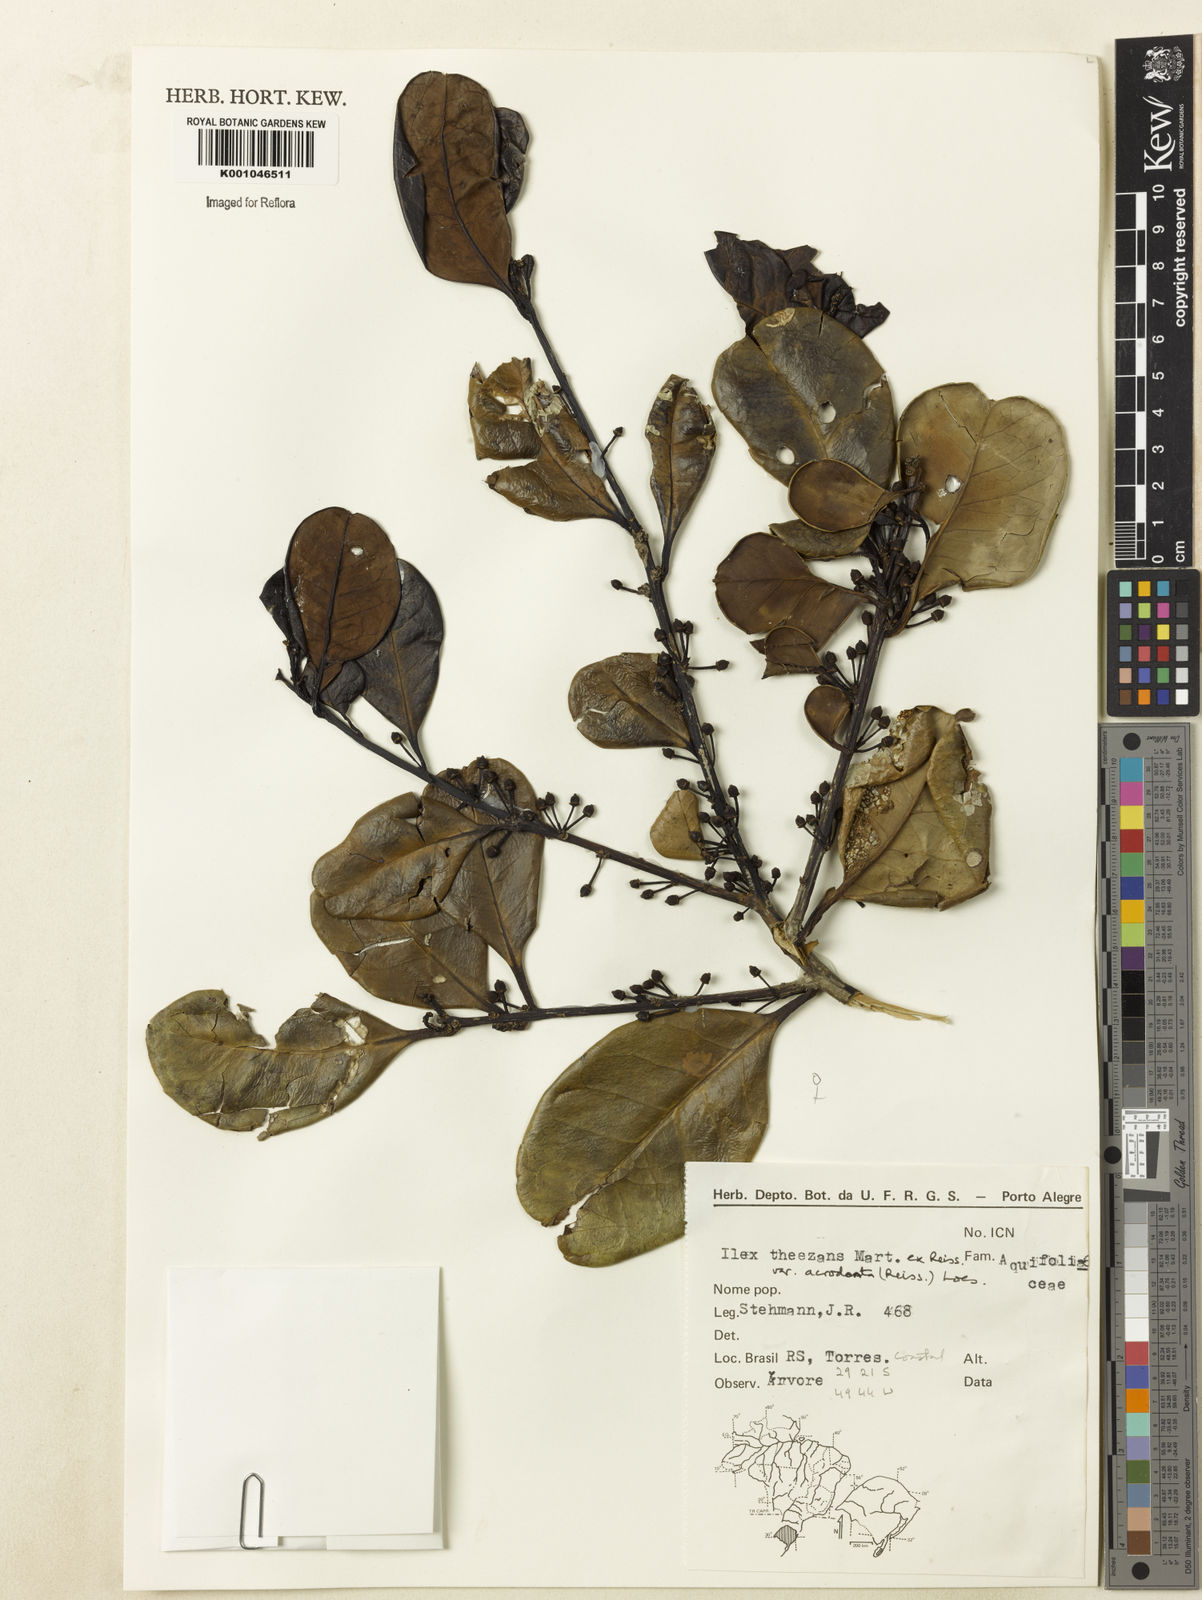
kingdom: Plantae
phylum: Tracheophyta
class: Magnoliopsida
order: Aquifoliales
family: Aquifoliaceae
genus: Ilex
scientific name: Ilex theezans
